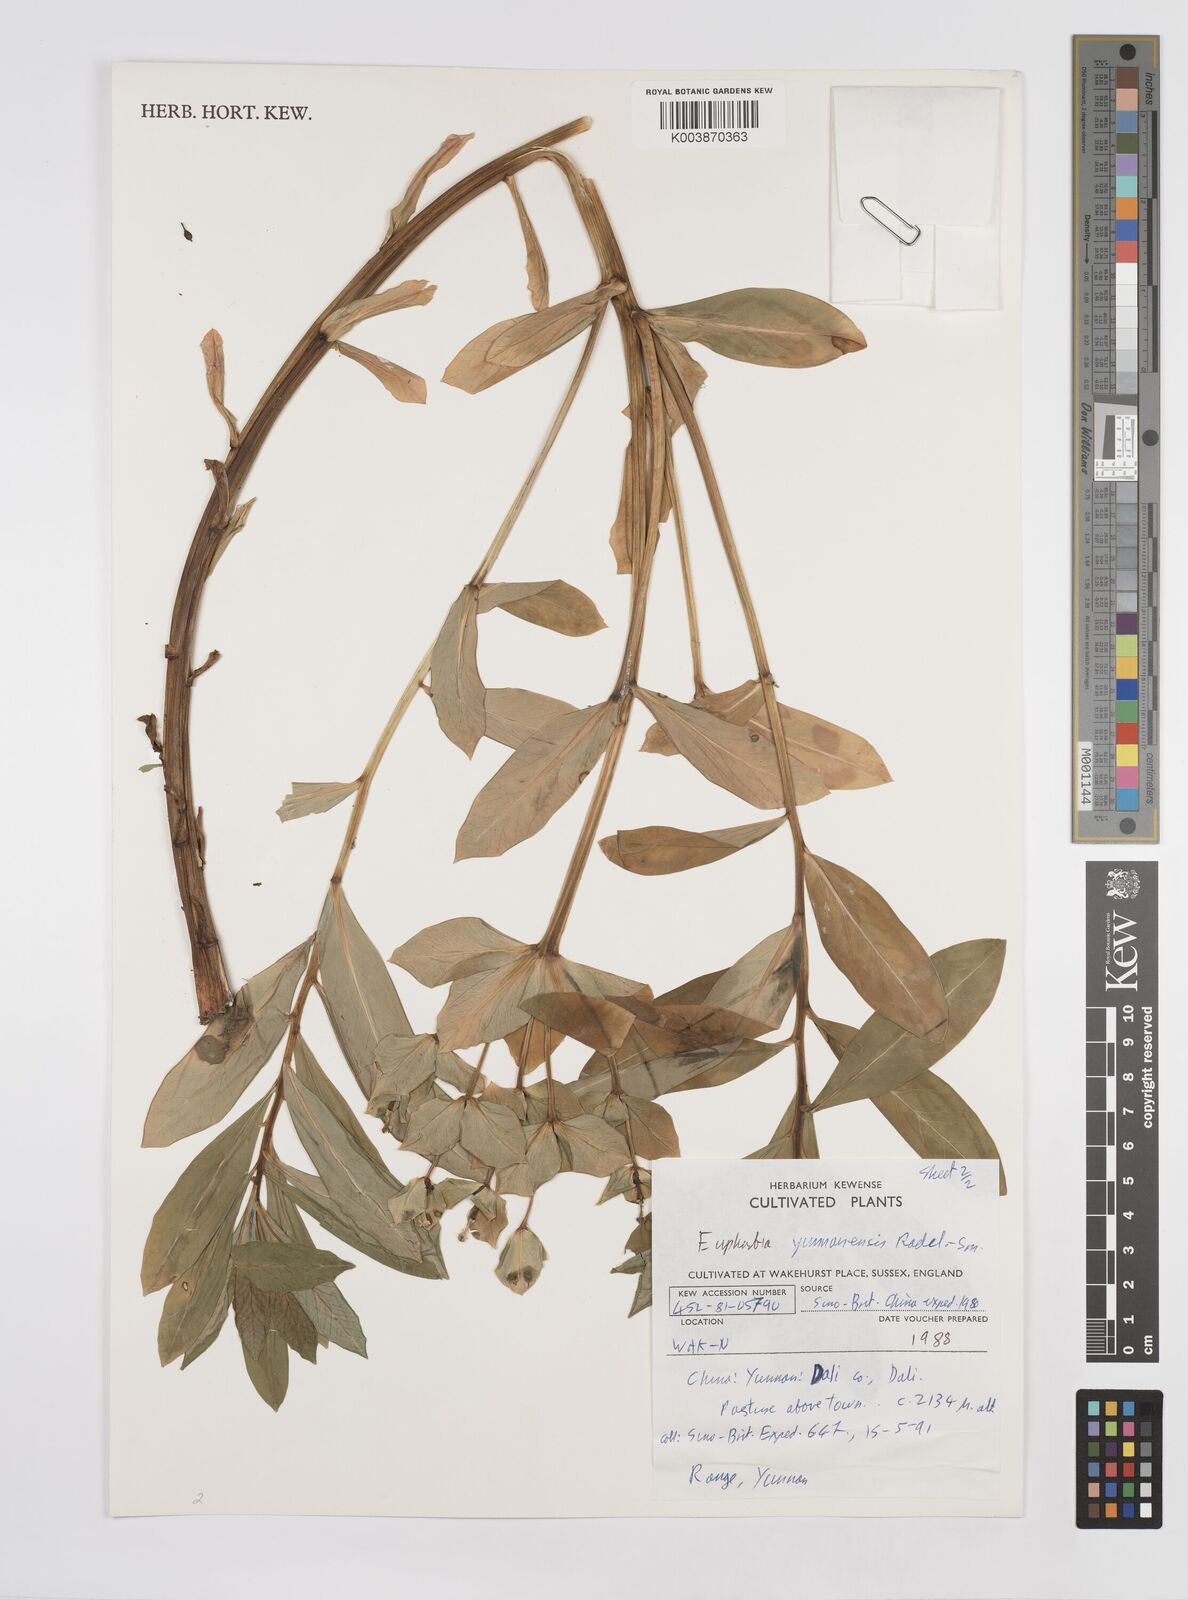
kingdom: Plantae
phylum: Tracheophyta
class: Magnoliopsida
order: Malpighiales
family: Euphorbiaceae
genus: Euphorbia
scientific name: Euphorbia wallichii
